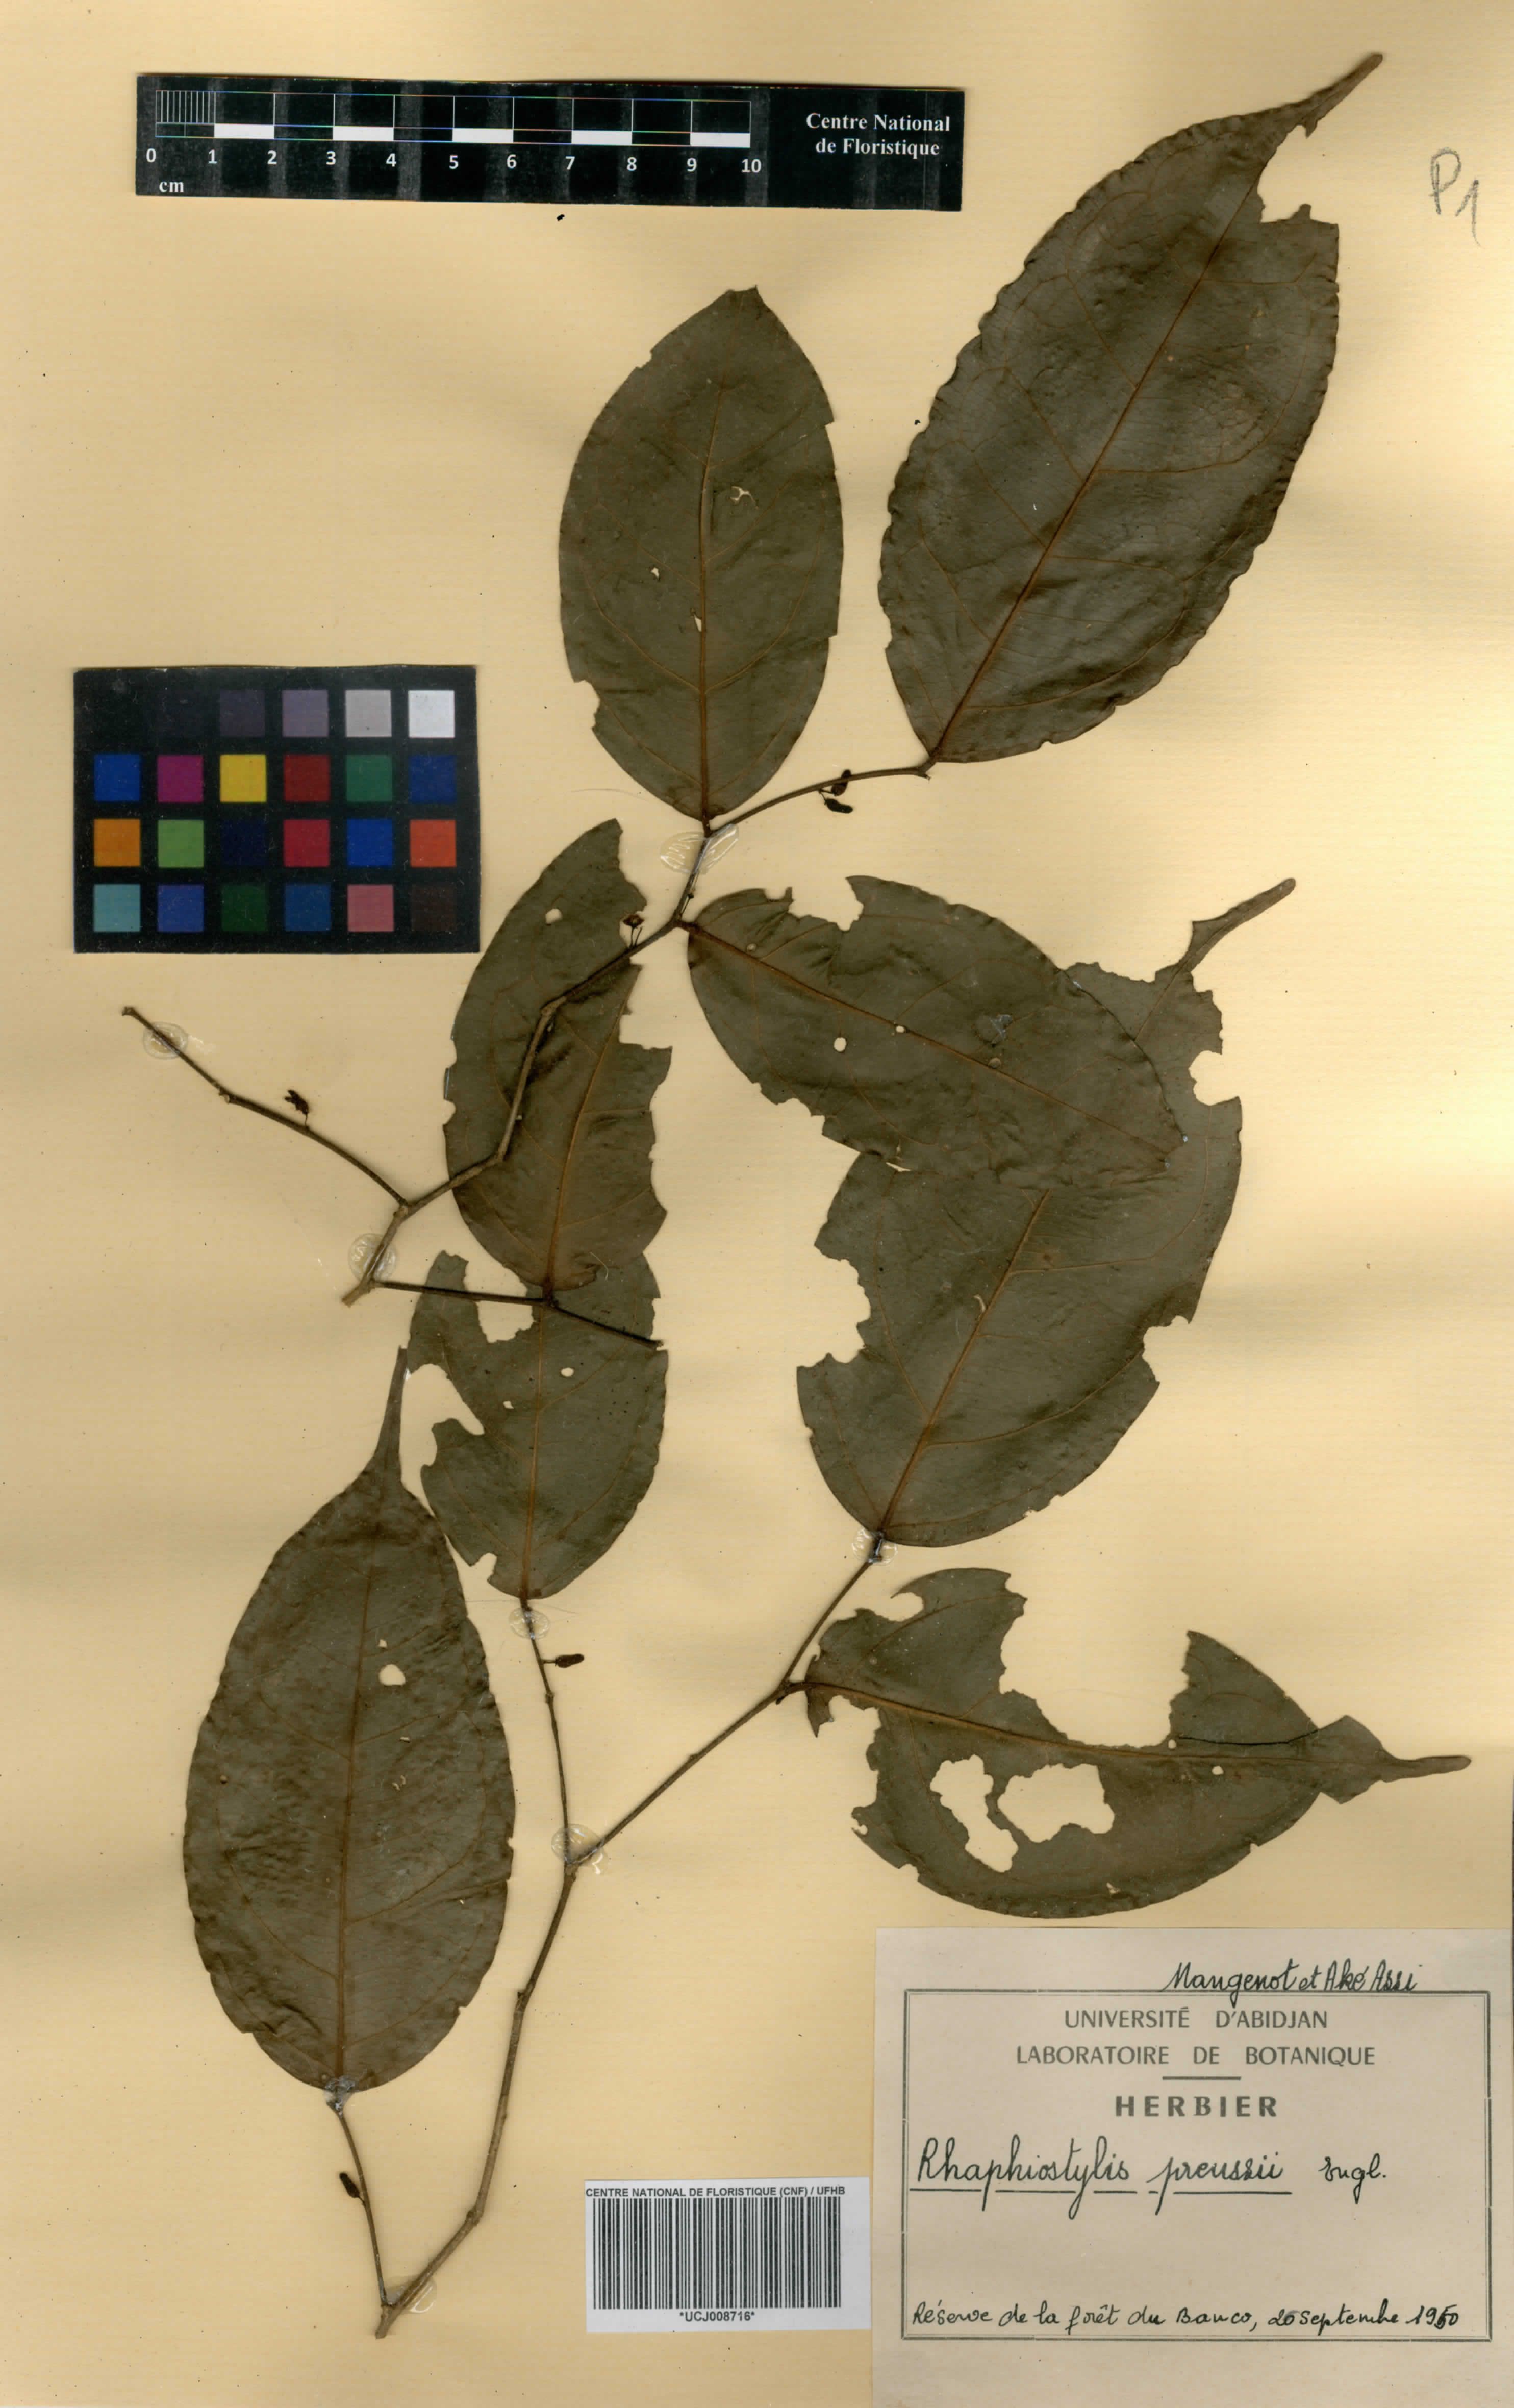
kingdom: Plantae
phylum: Tracheophyta
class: Magnoliopsida
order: Metteniusales
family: Metteniusaceae
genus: Rhaphiostylis
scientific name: Rhaphiostylis preussii
